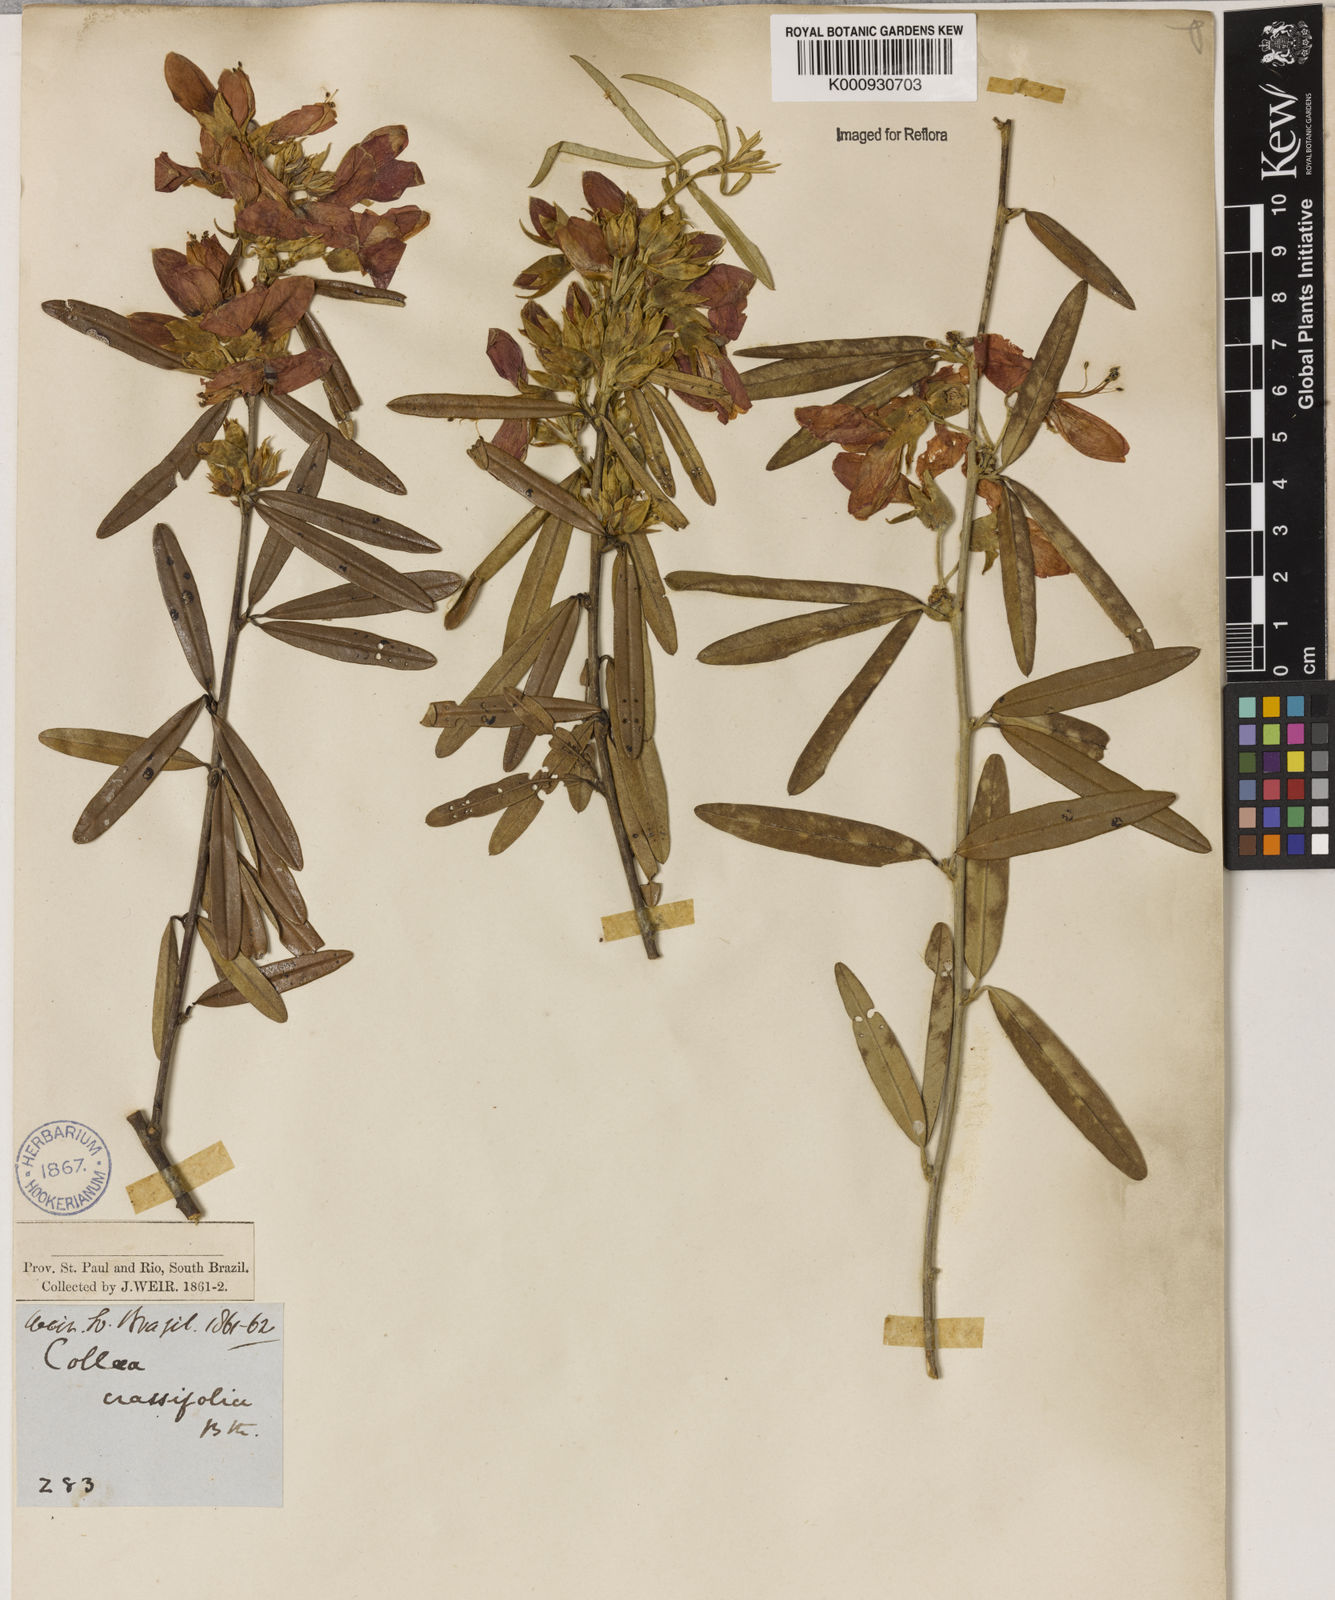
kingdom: Plantae
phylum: Tracheophyta
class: Magnoliopsida
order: Lamiales
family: Lamiaceae
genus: Coleus
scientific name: Coleus barbatus
